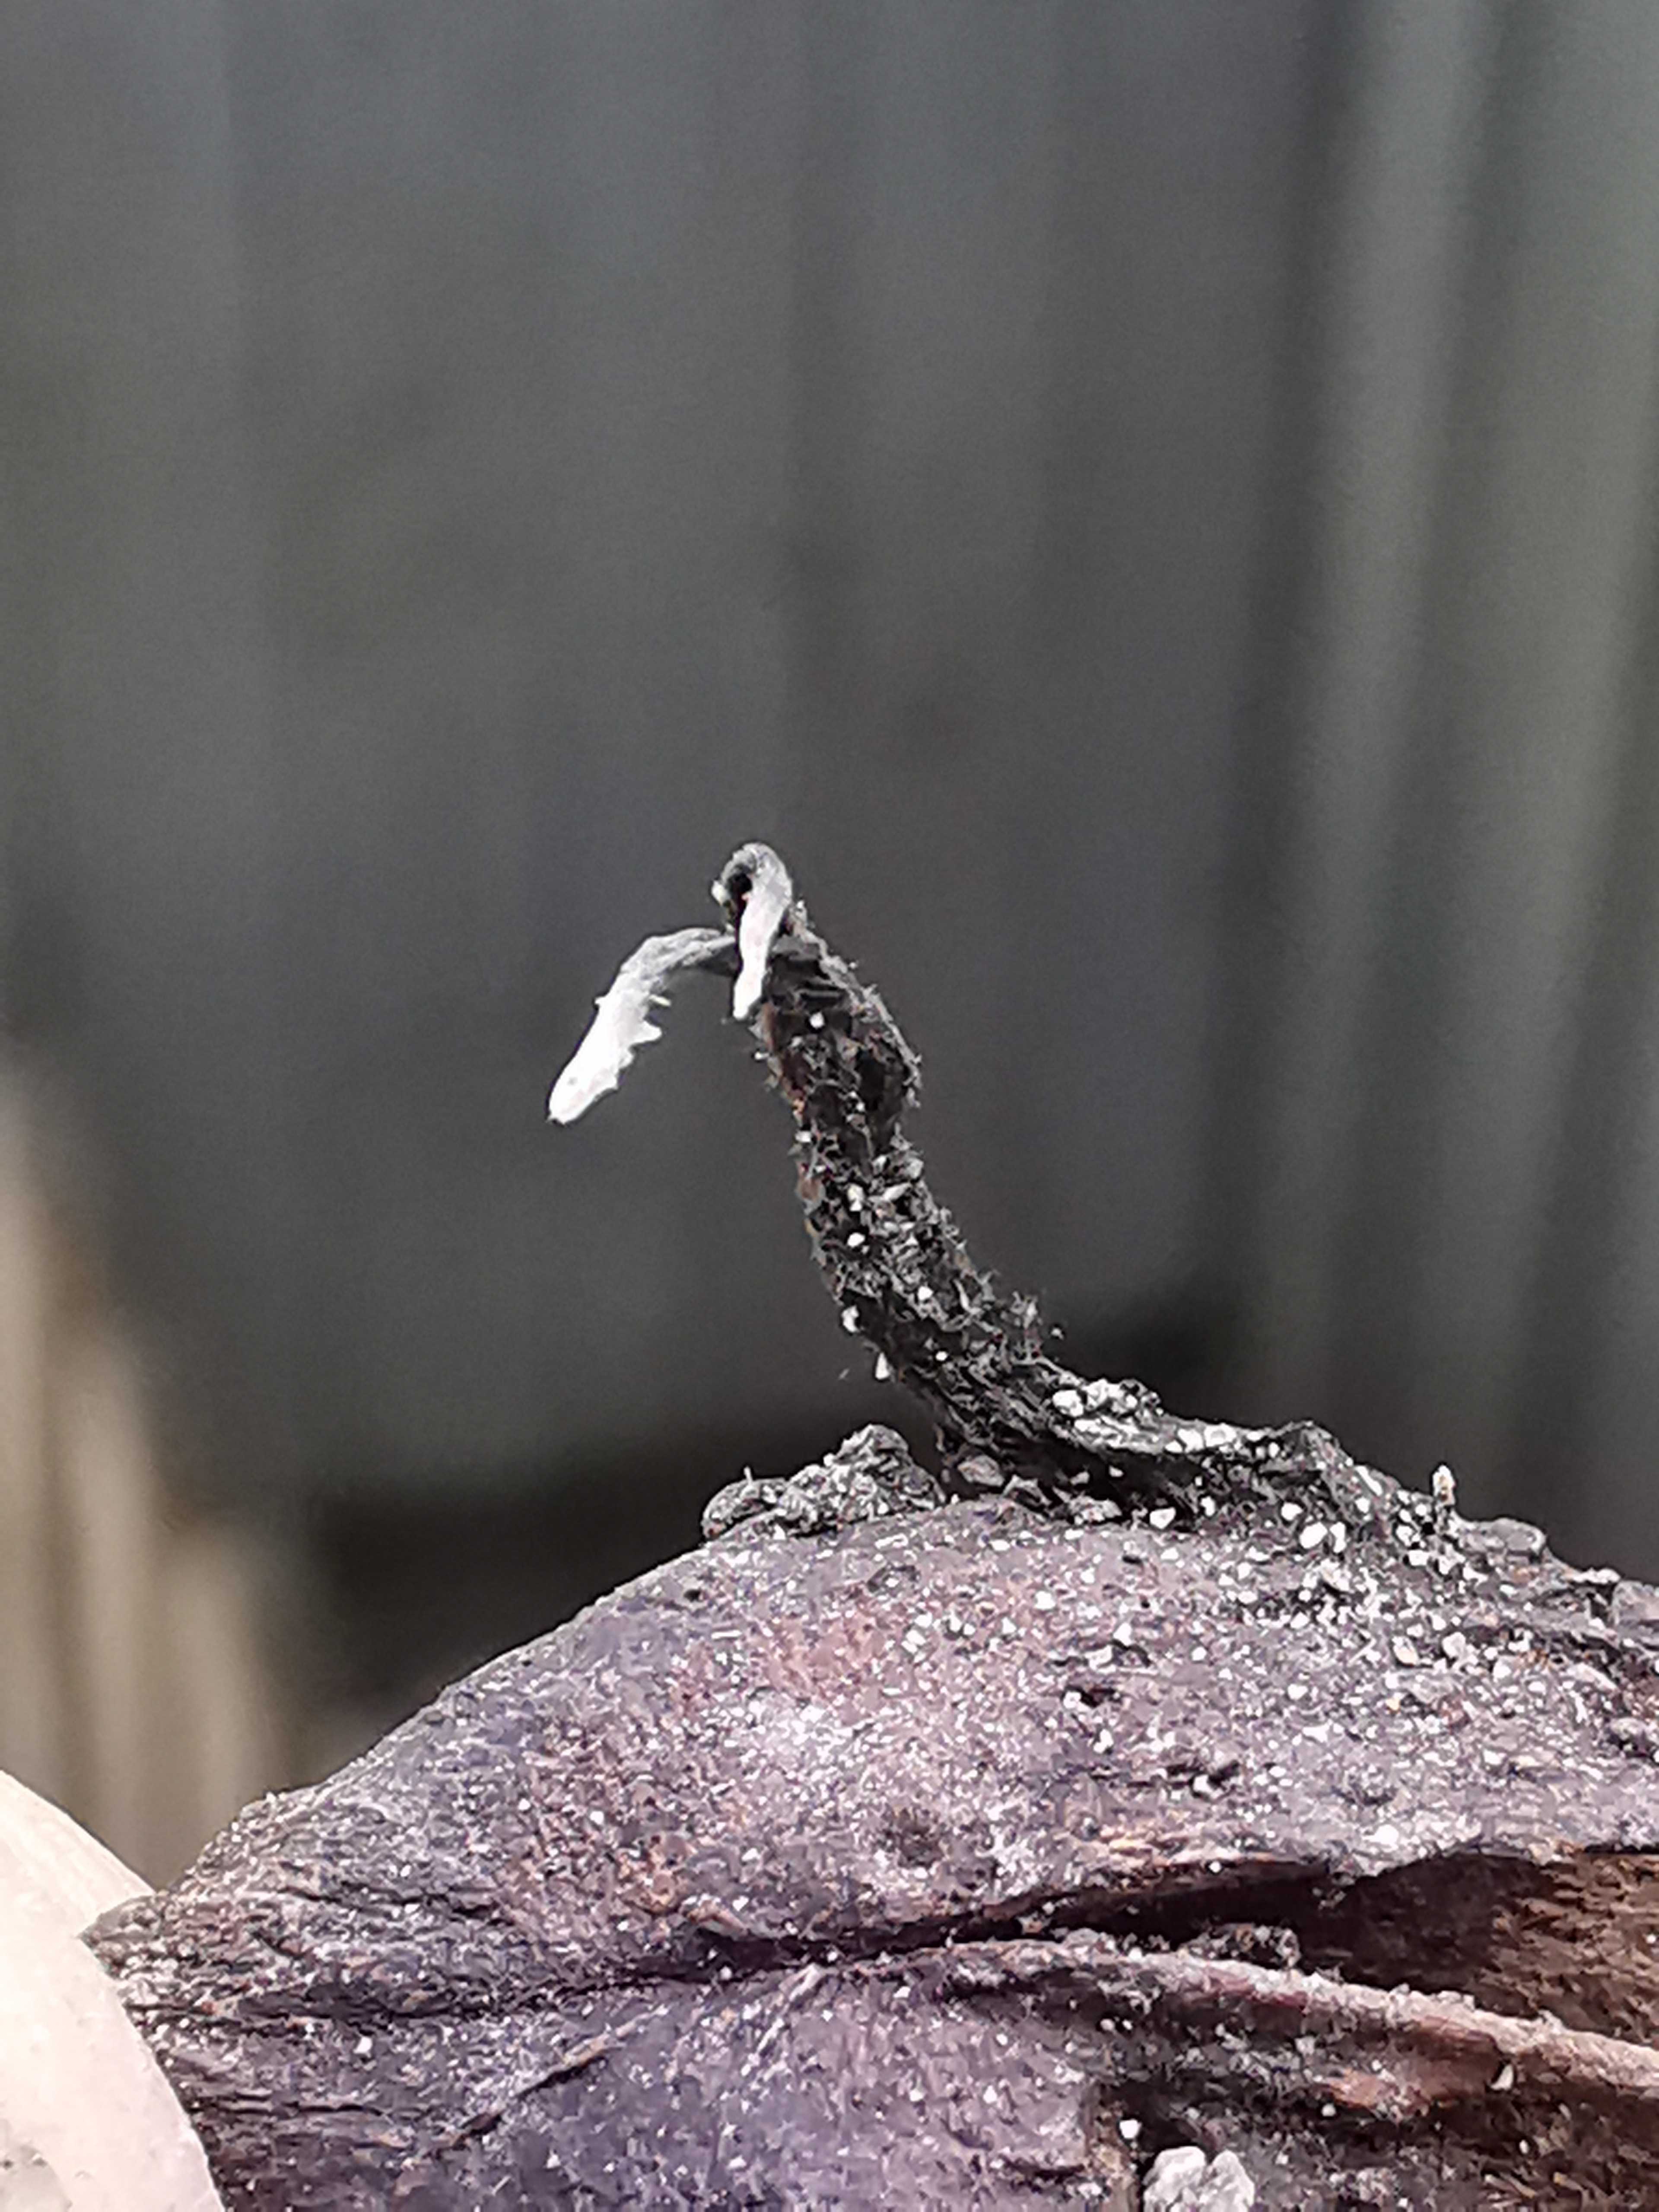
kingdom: Fungi
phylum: Ascomycota
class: Sordariomycetes
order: Xylariales
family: Xylariaceae
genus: Xylaria
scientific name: Xylaria carpophila
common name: bogskål-stødsvamp
